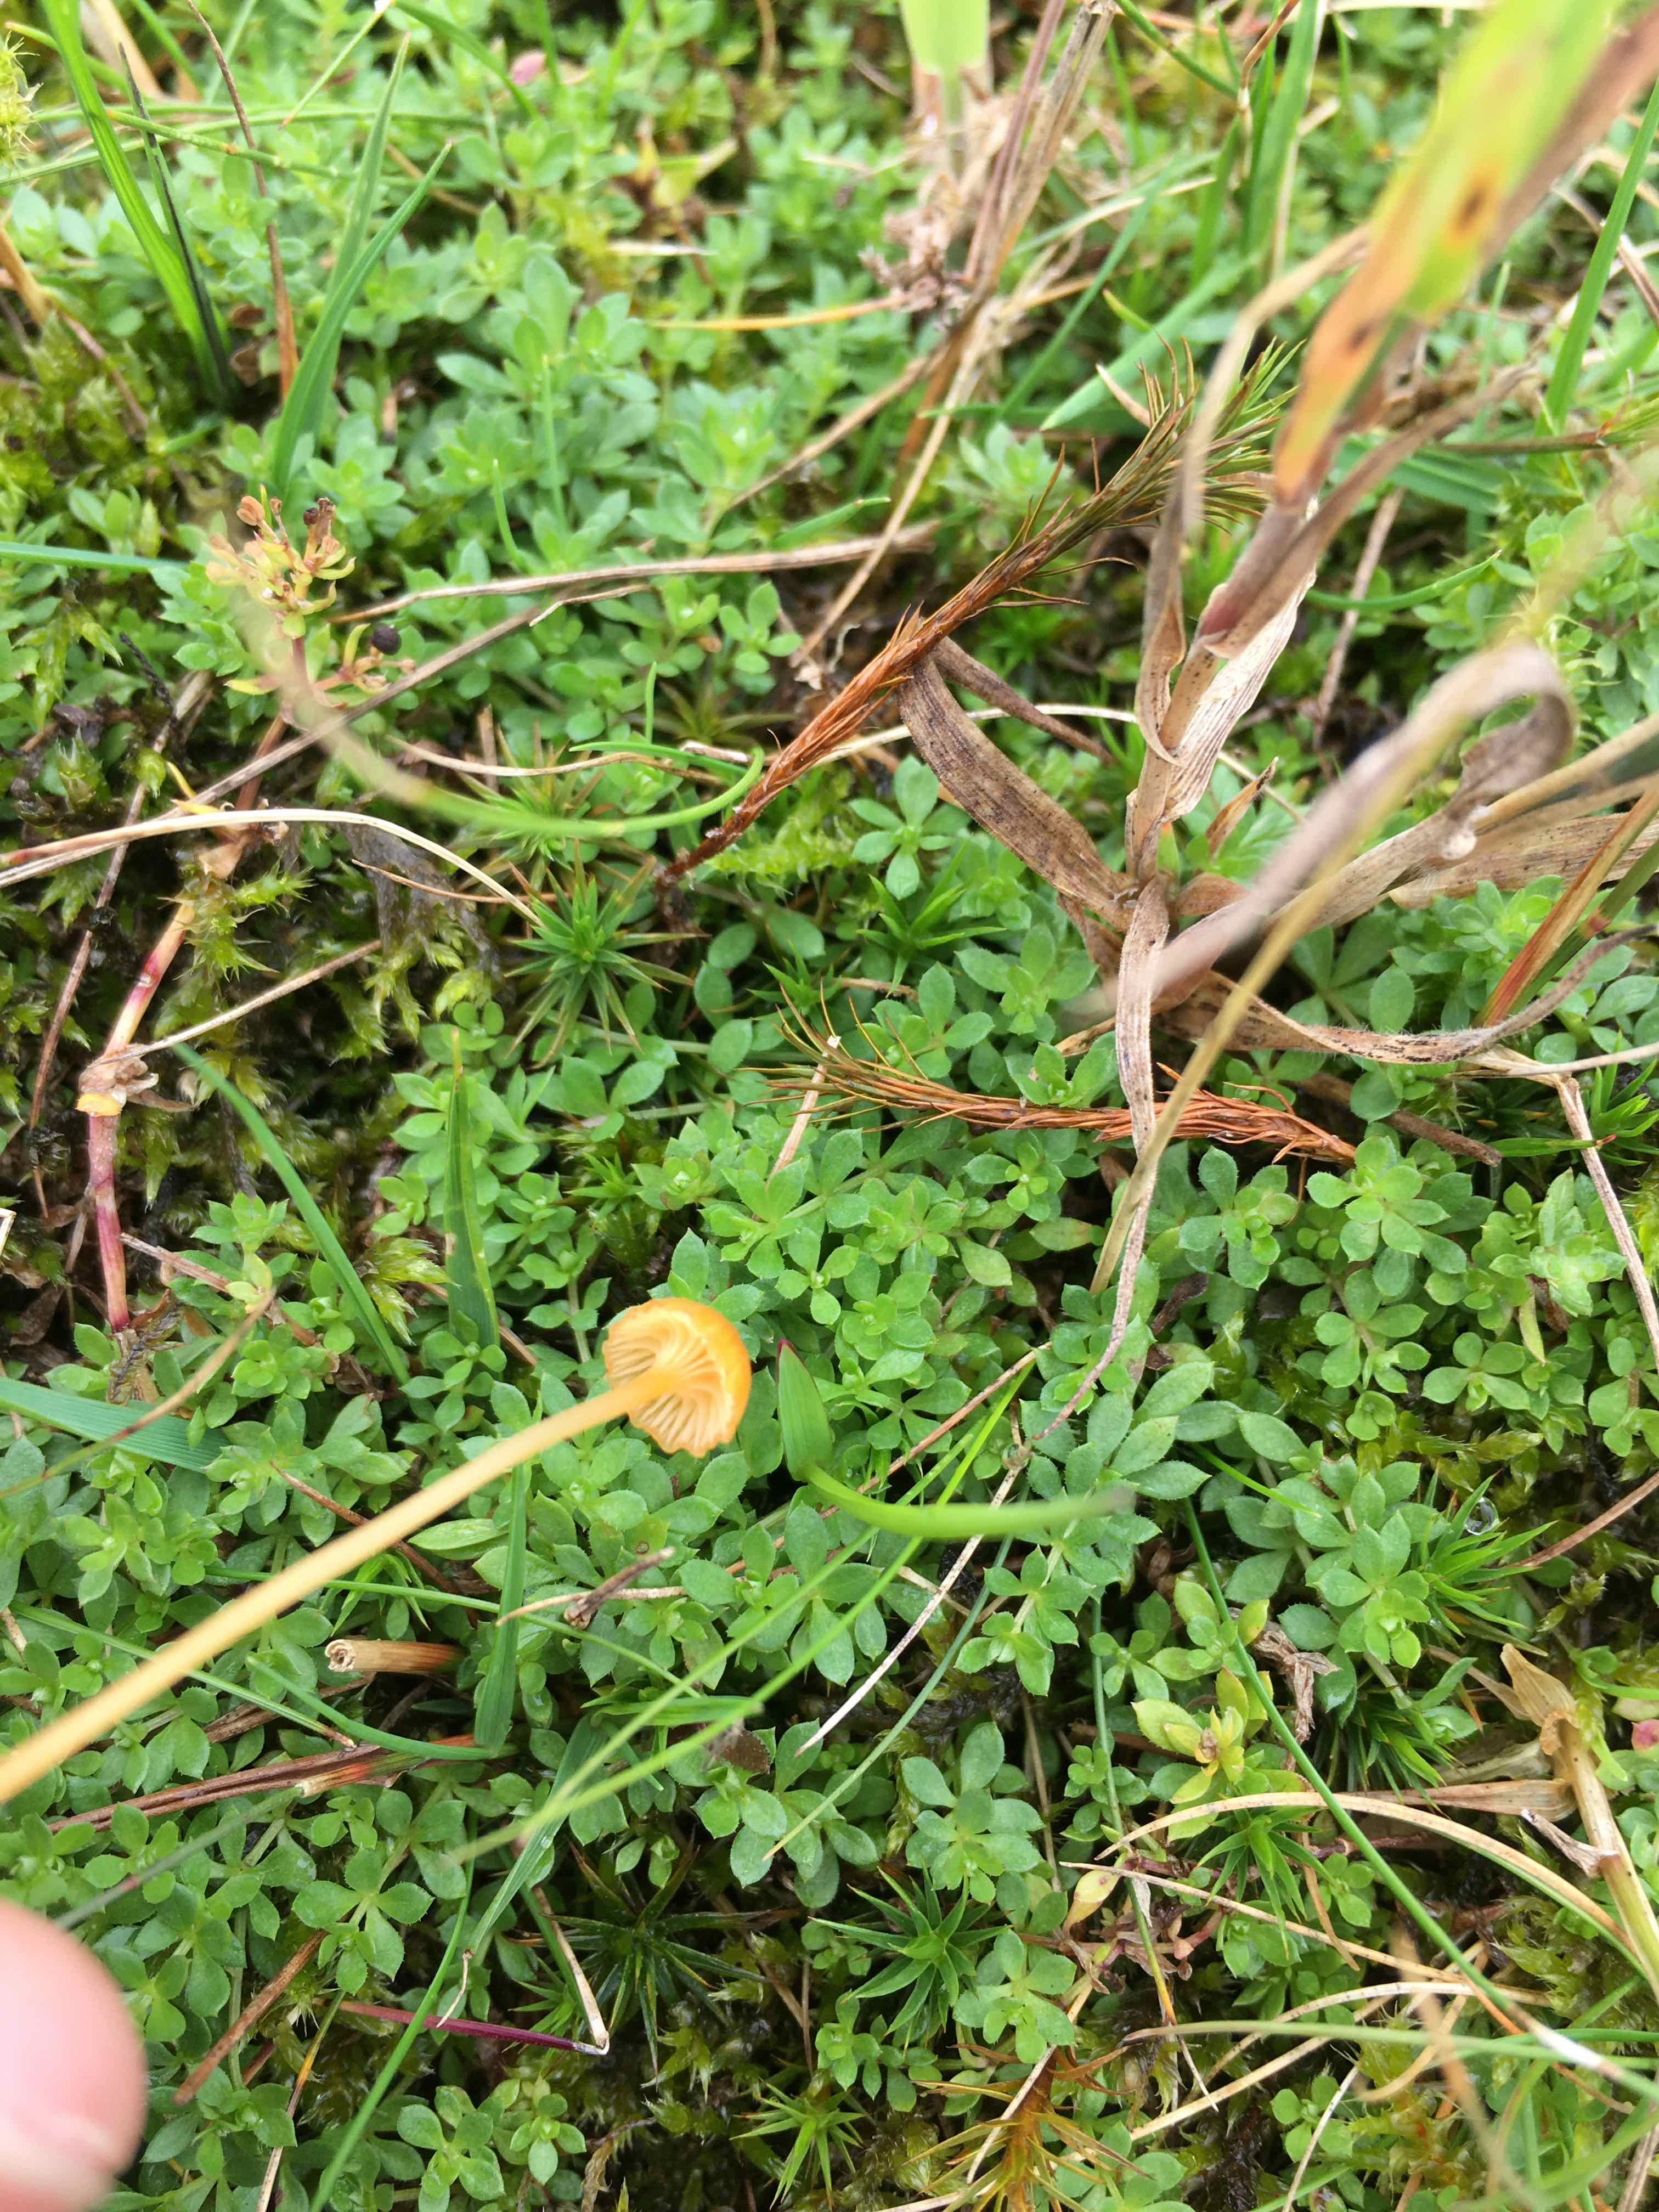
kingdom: Fungi
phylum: Basidiomycota
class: Agaricomycetes
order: Hymenochaetales
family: Rickenellaceae
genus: Rickenella
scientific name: Rickenella fibula
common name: orange mosnavlehat
